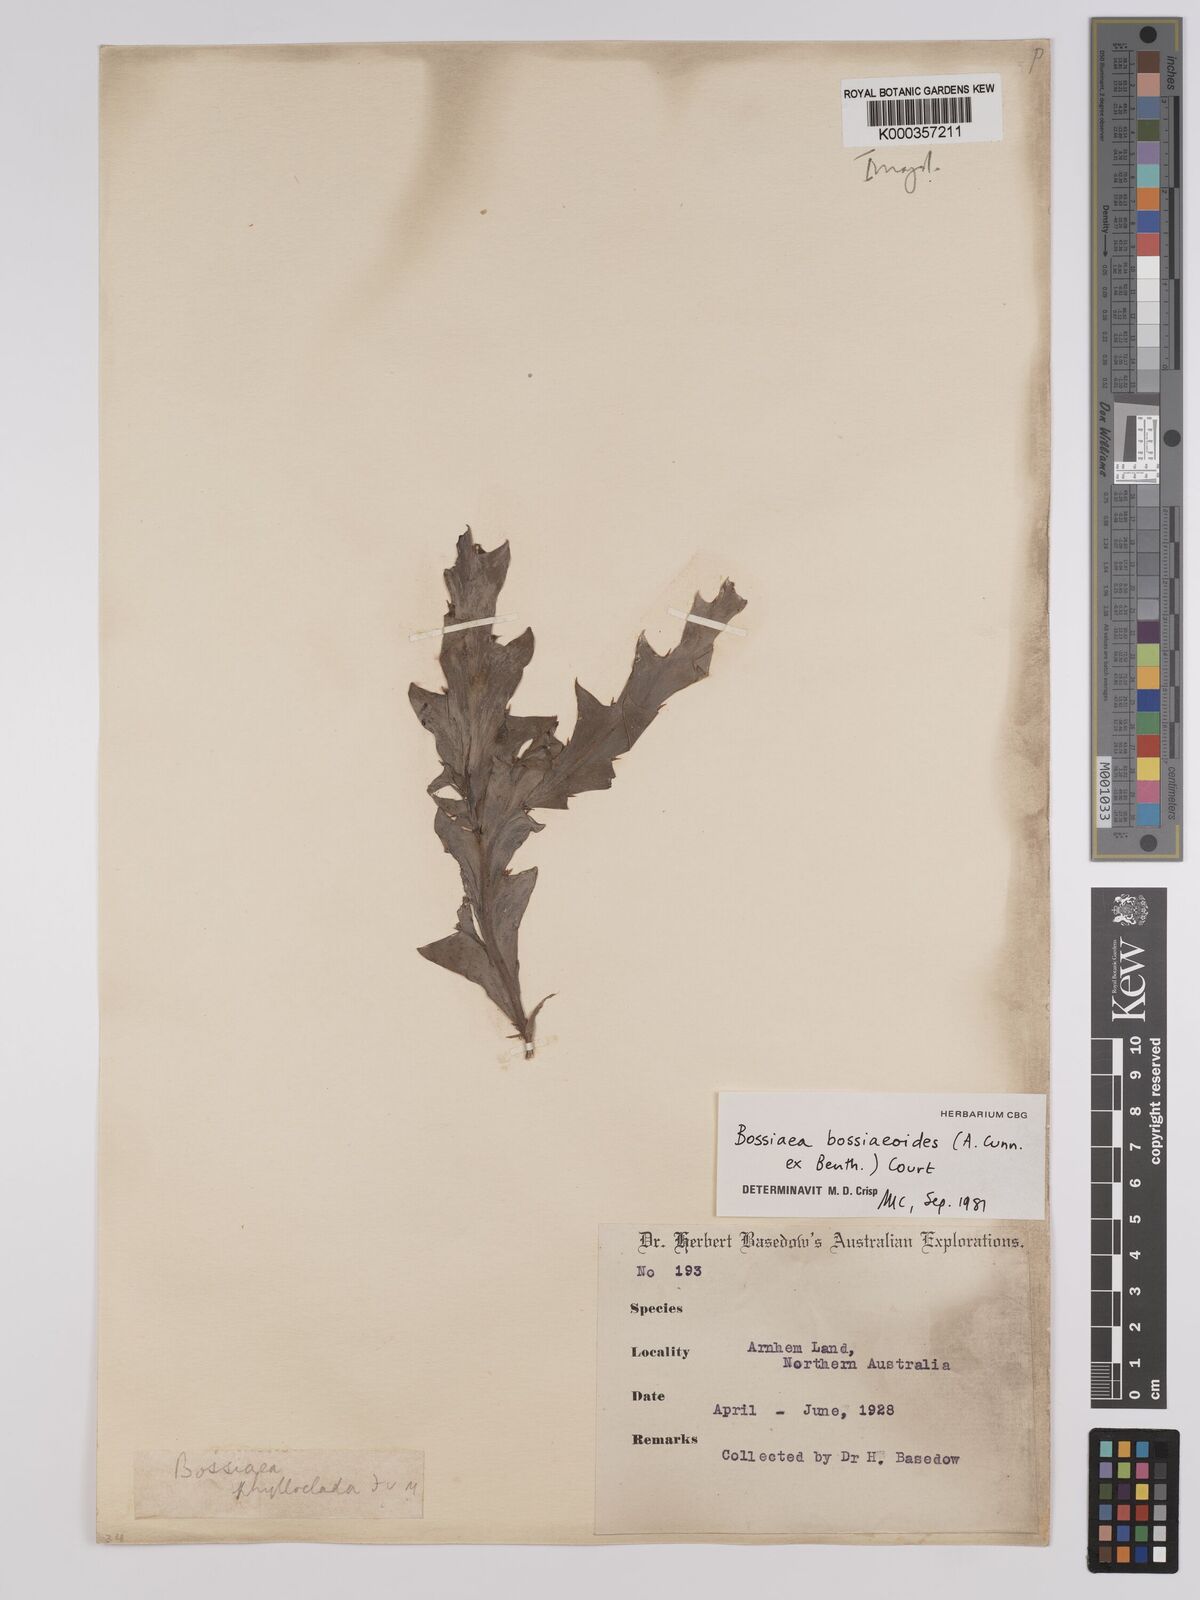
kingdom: Plantae
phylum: Tracheophyta
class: Magnoliopsida
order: Fabales
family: Fabaceae
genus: Bossiaea
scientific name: Bossiaea bossiaeoides
